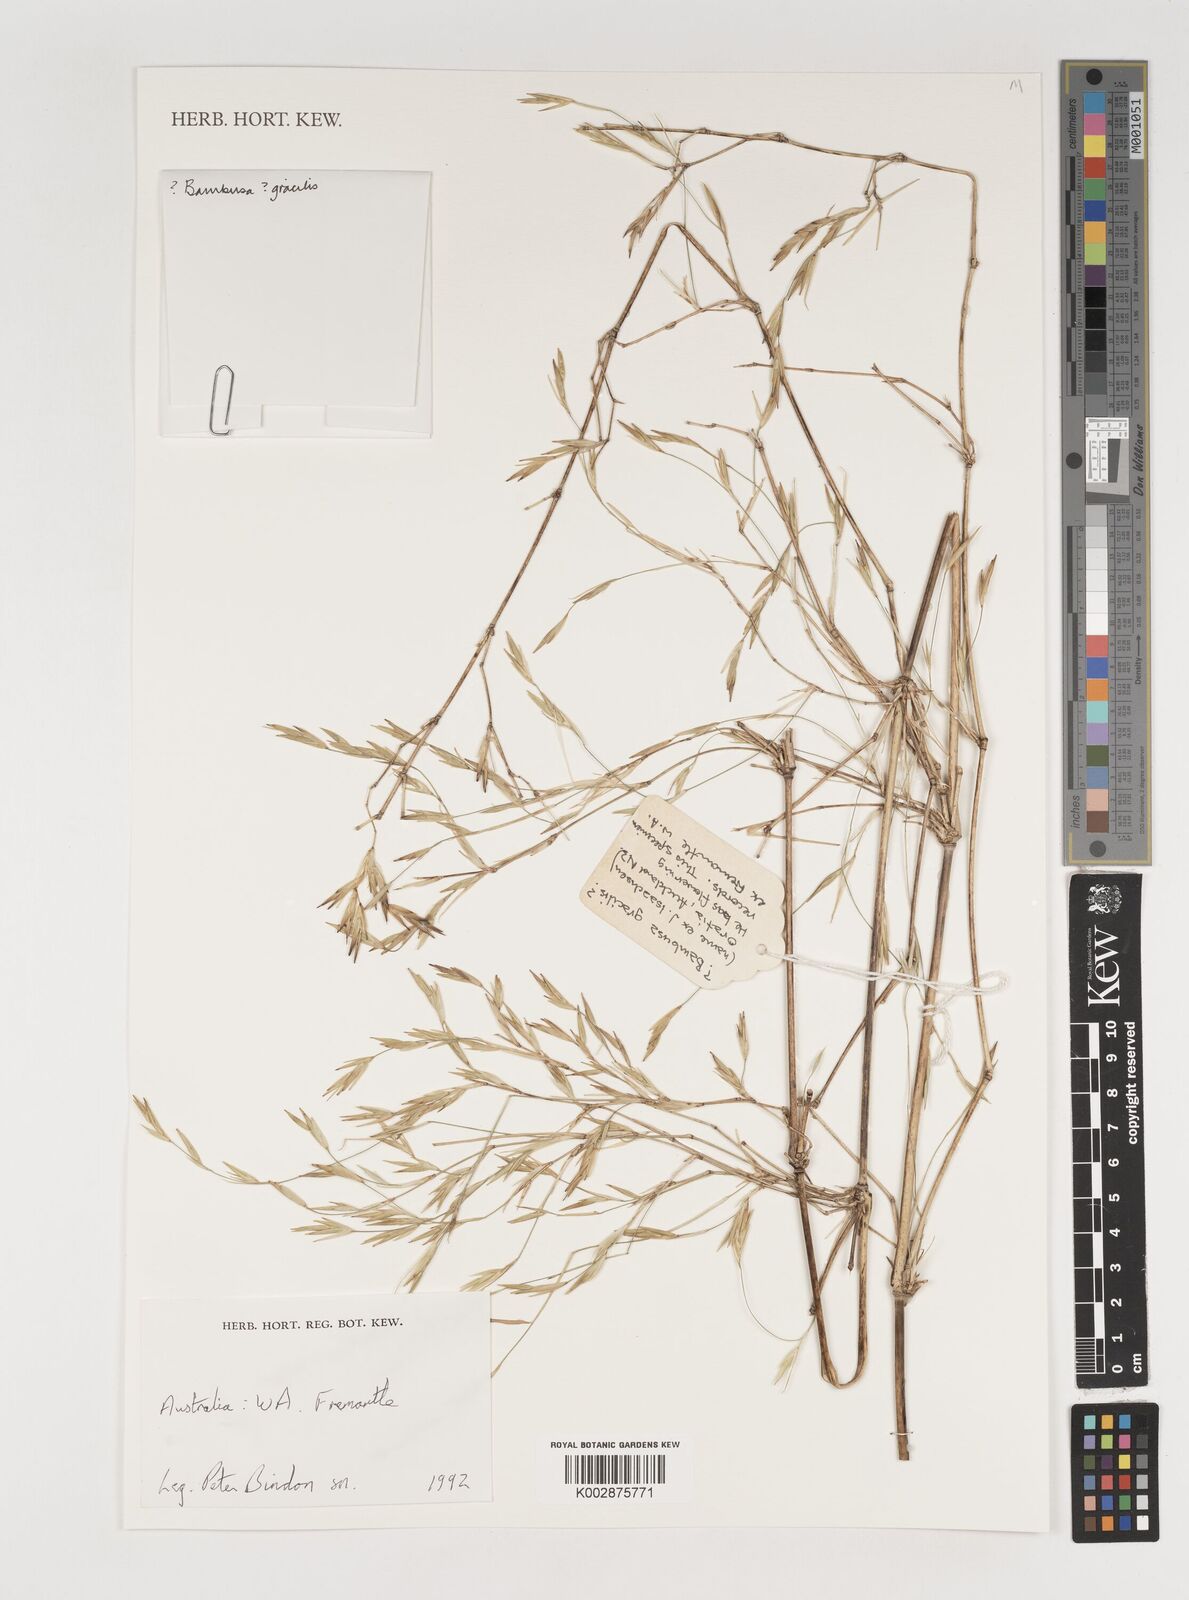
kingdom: Plantae
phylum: Tracheophyta
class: Liliopsida
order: Poales
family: Poaceae
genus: Neololeba
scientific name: Neololeba atra
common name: Cape bamboo
